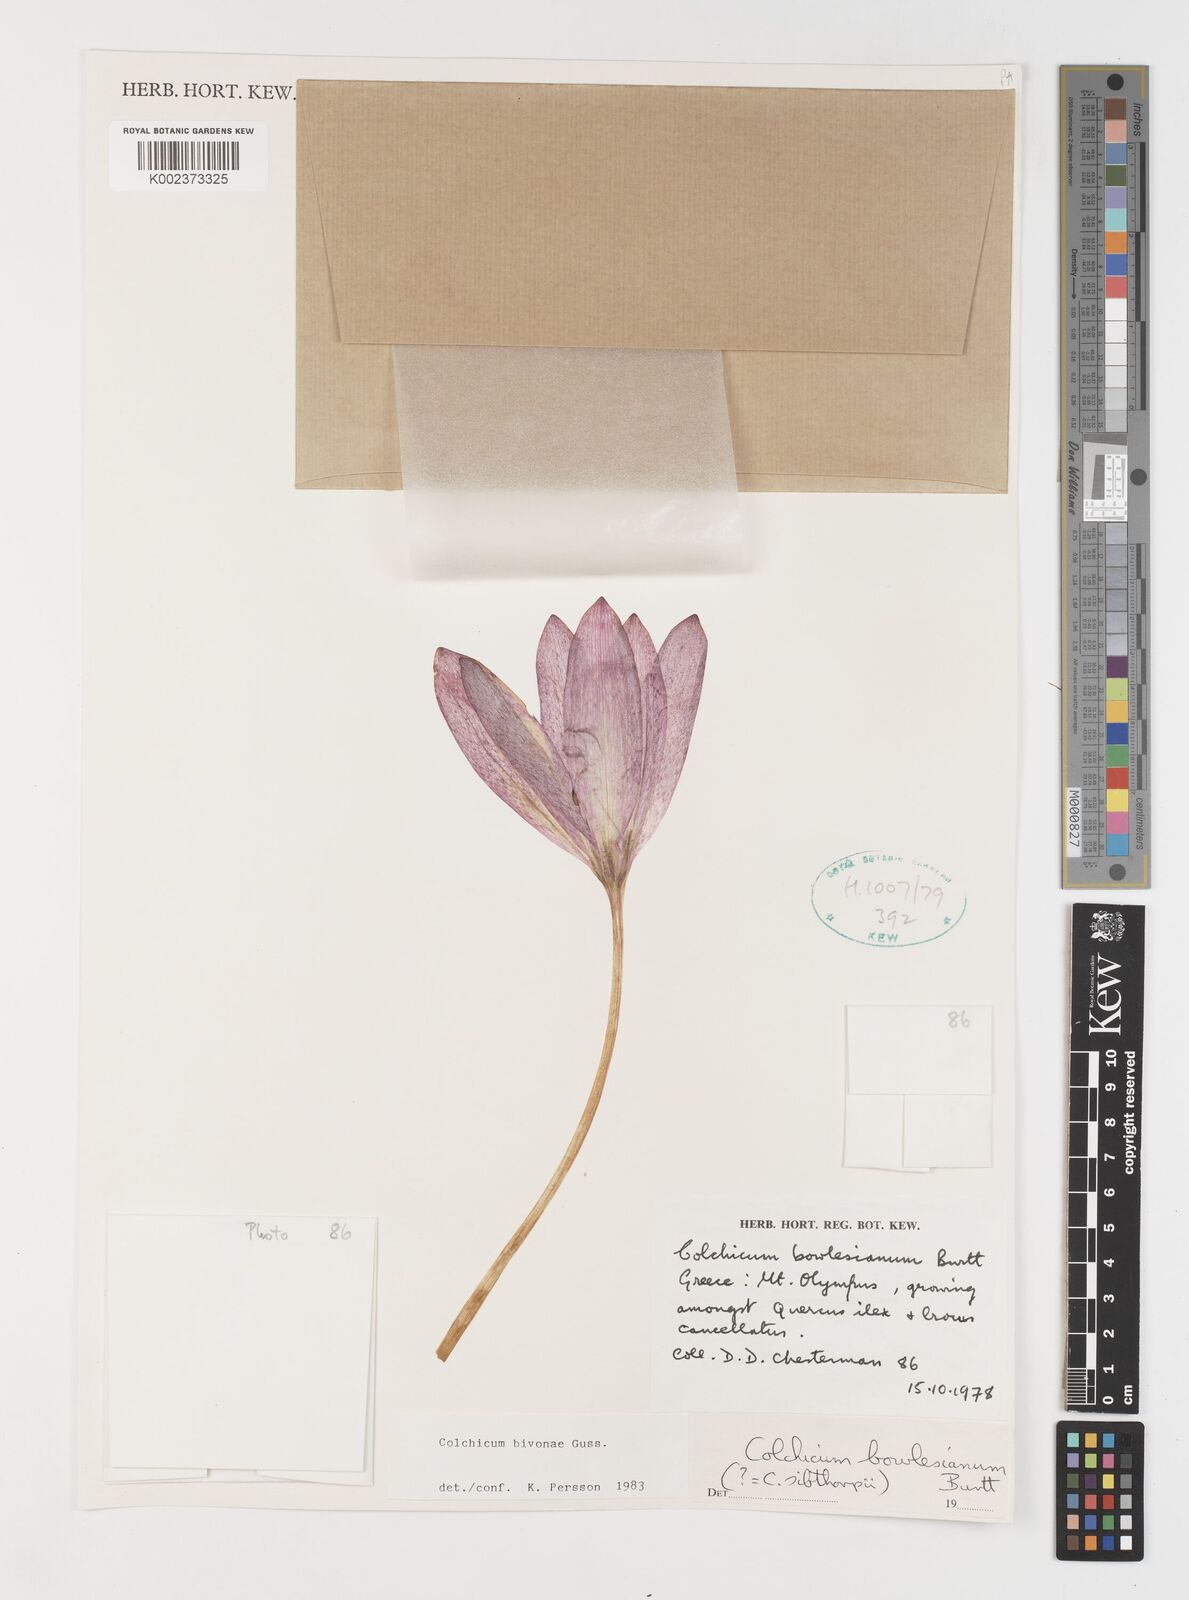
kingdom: Plantae
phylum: Tracheophyta
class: Liliopsida
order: Liliales
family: Colchicaceae
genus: Colchicum
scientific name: Colchicum bivonae
